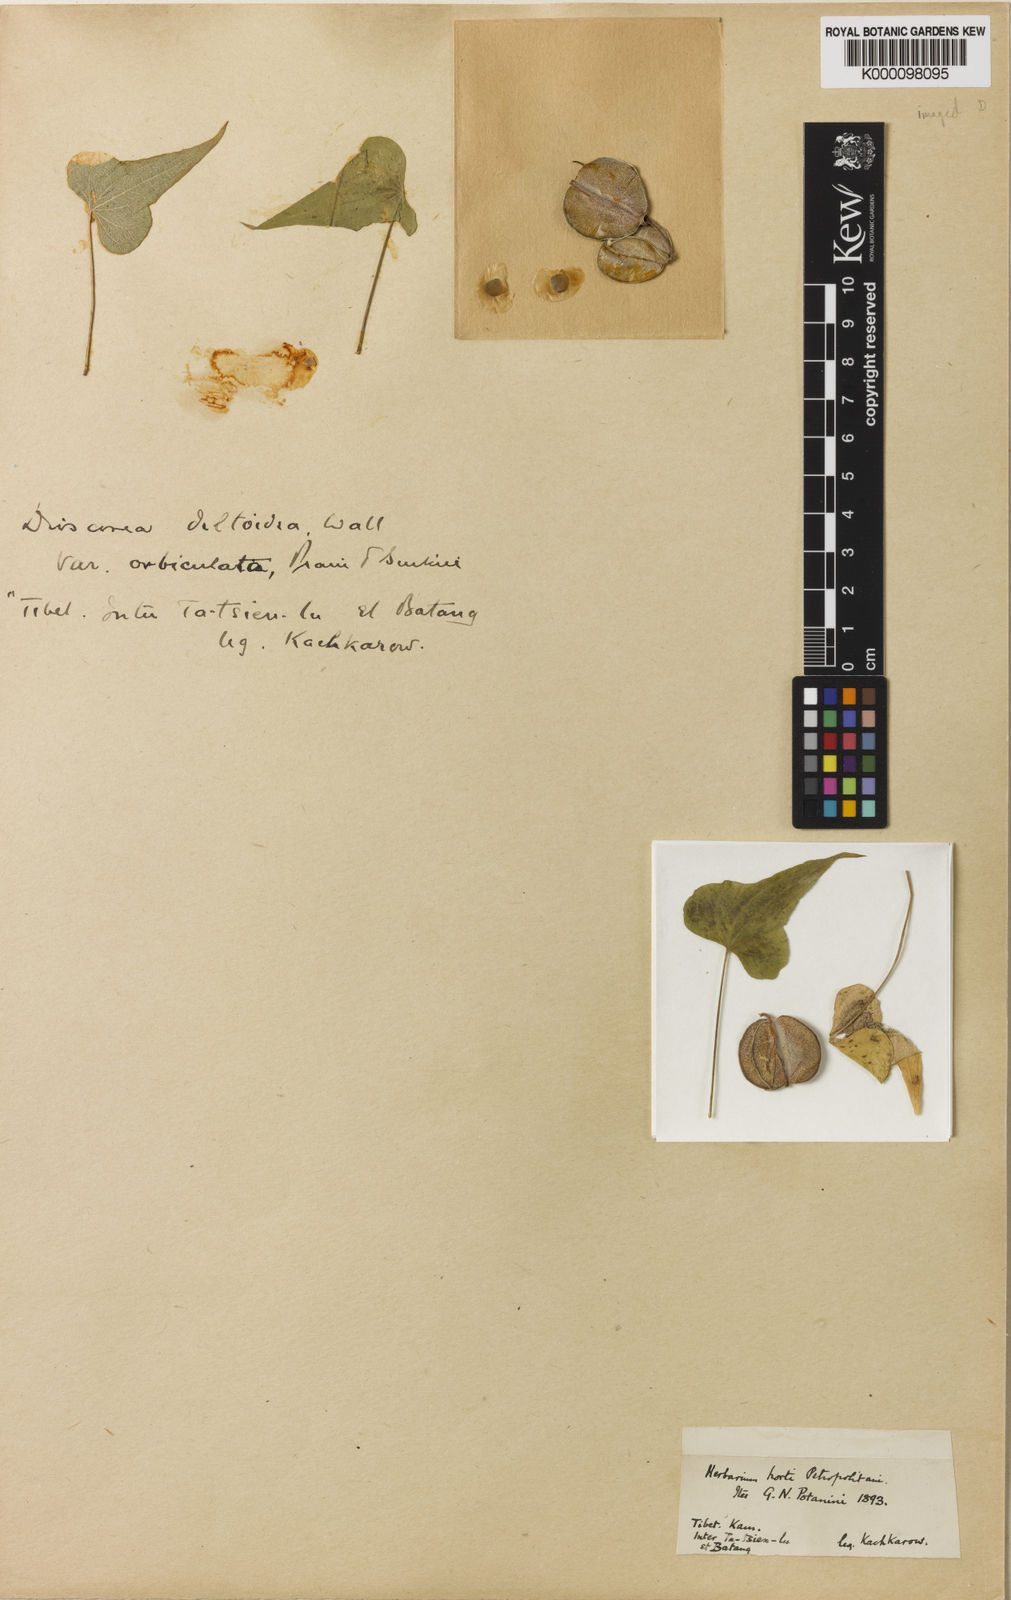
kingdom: Plantae
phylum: Tracheophyta
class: Liliopsida
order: Dioscoreales
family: Dioscoreaceae
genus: Dioscorea
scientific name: Dioscorea
